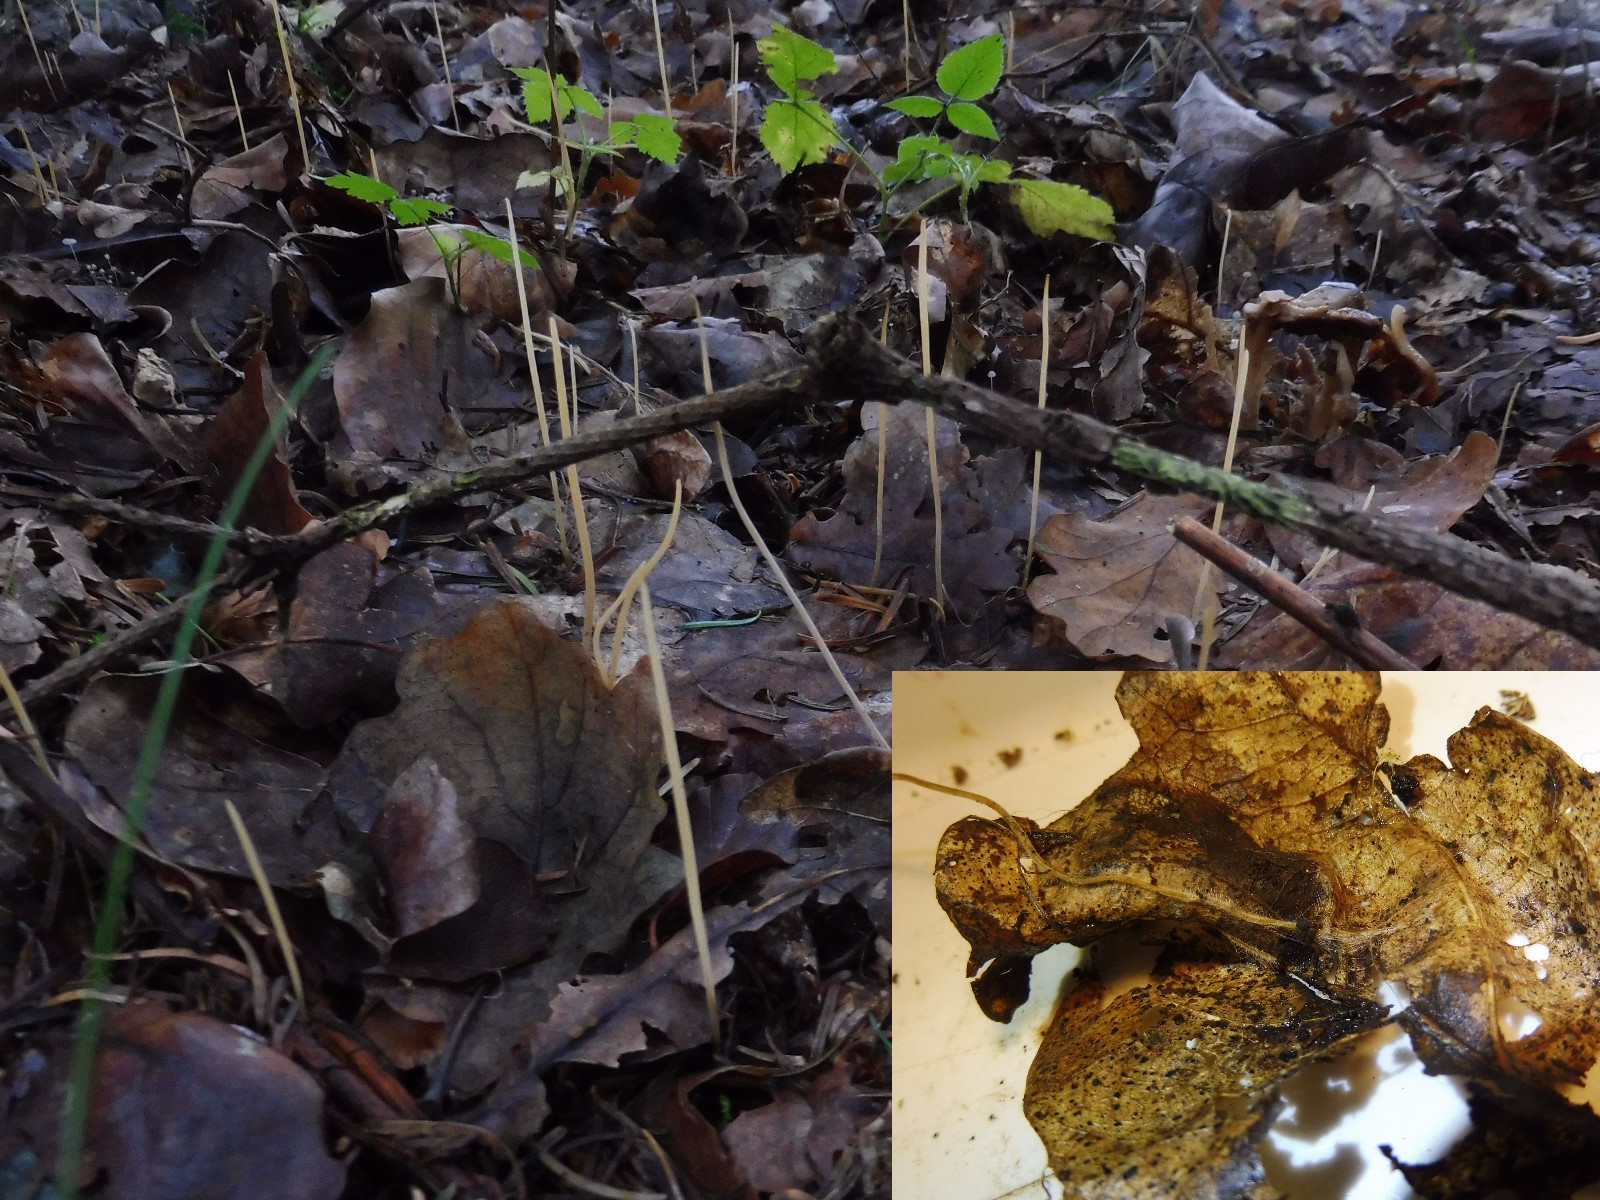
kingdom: Fungi
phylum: Basidiomycota
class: Agaricomycetes
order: Agaricales
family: Typhulaceae
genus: Typhula
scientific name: Typhula juncea
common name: trådagtig rørkølle
